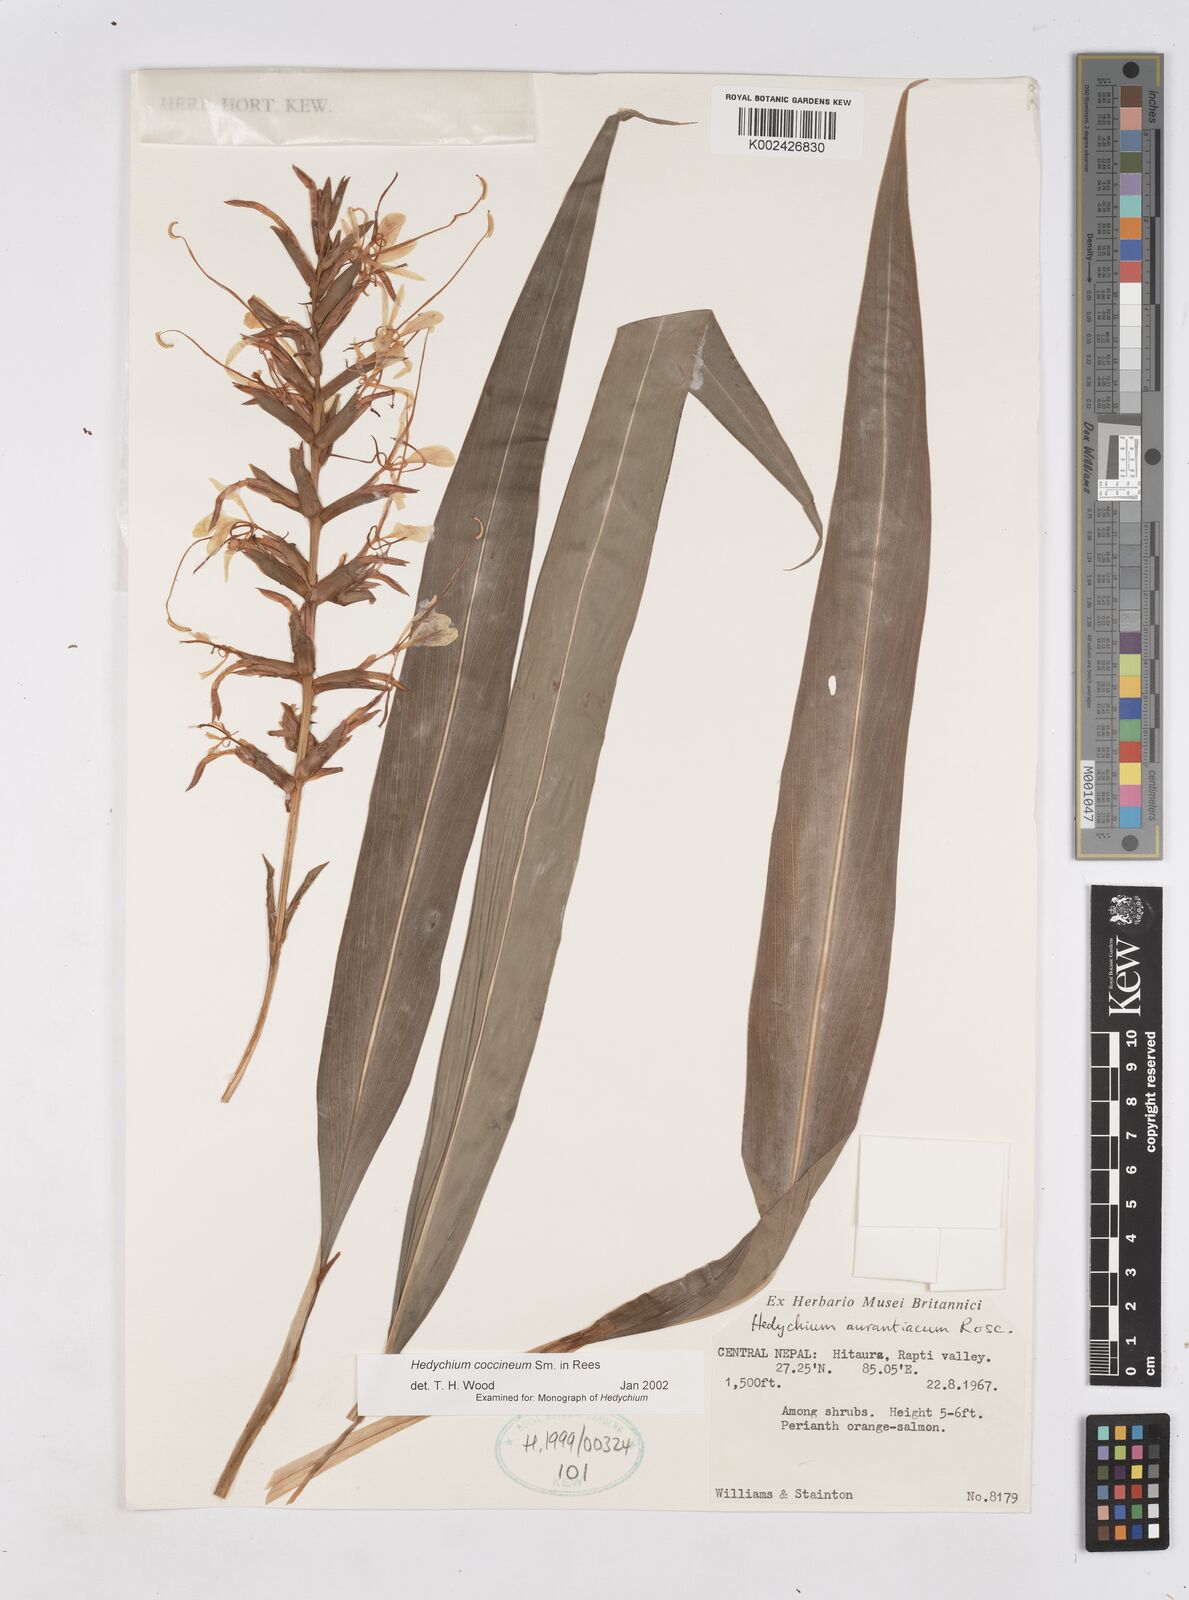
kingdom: Plantae
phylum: Tracheophyta
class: Liliopsida
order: Zingiberales
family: Zingiberaceae
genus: Hedychium
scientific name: Hedychium coccineum
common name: Red ginger-lily
